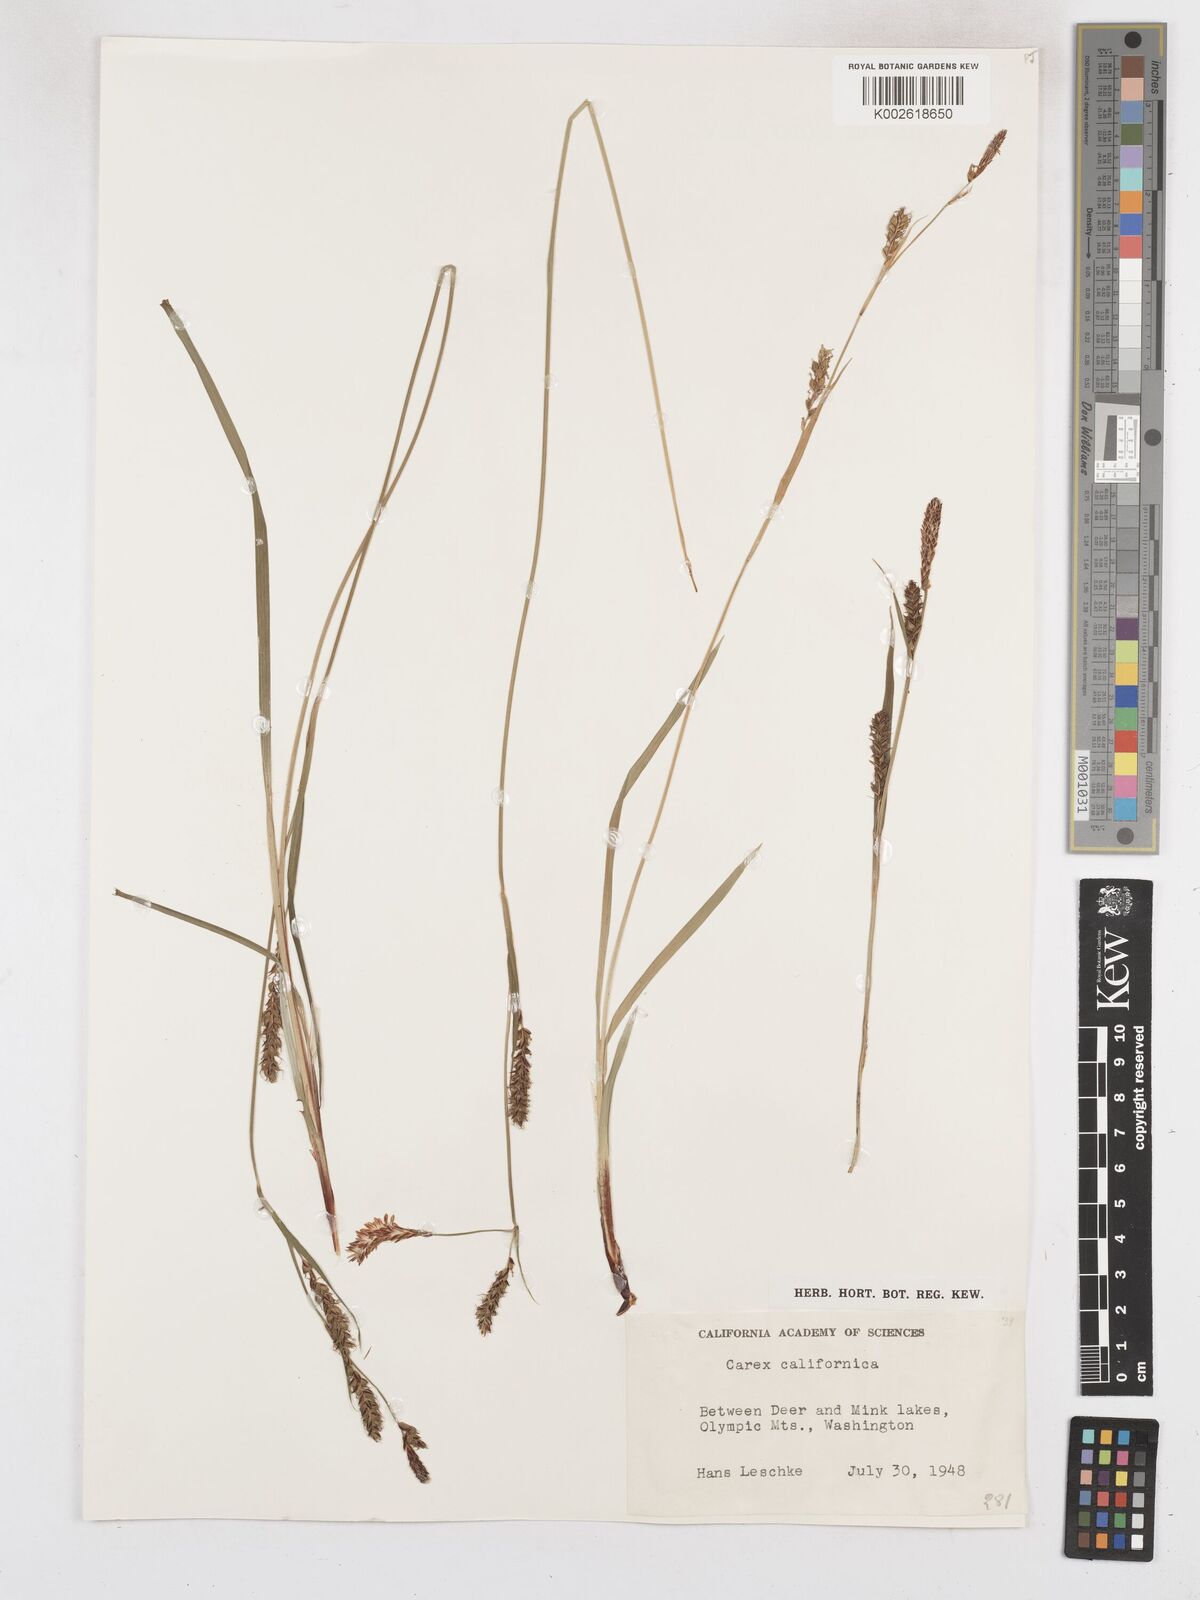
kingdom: Plantae
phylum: Tracheophyta
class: Liliopsida
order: Poales
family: Cyperaceae
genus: Carex
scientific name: Carex californica
